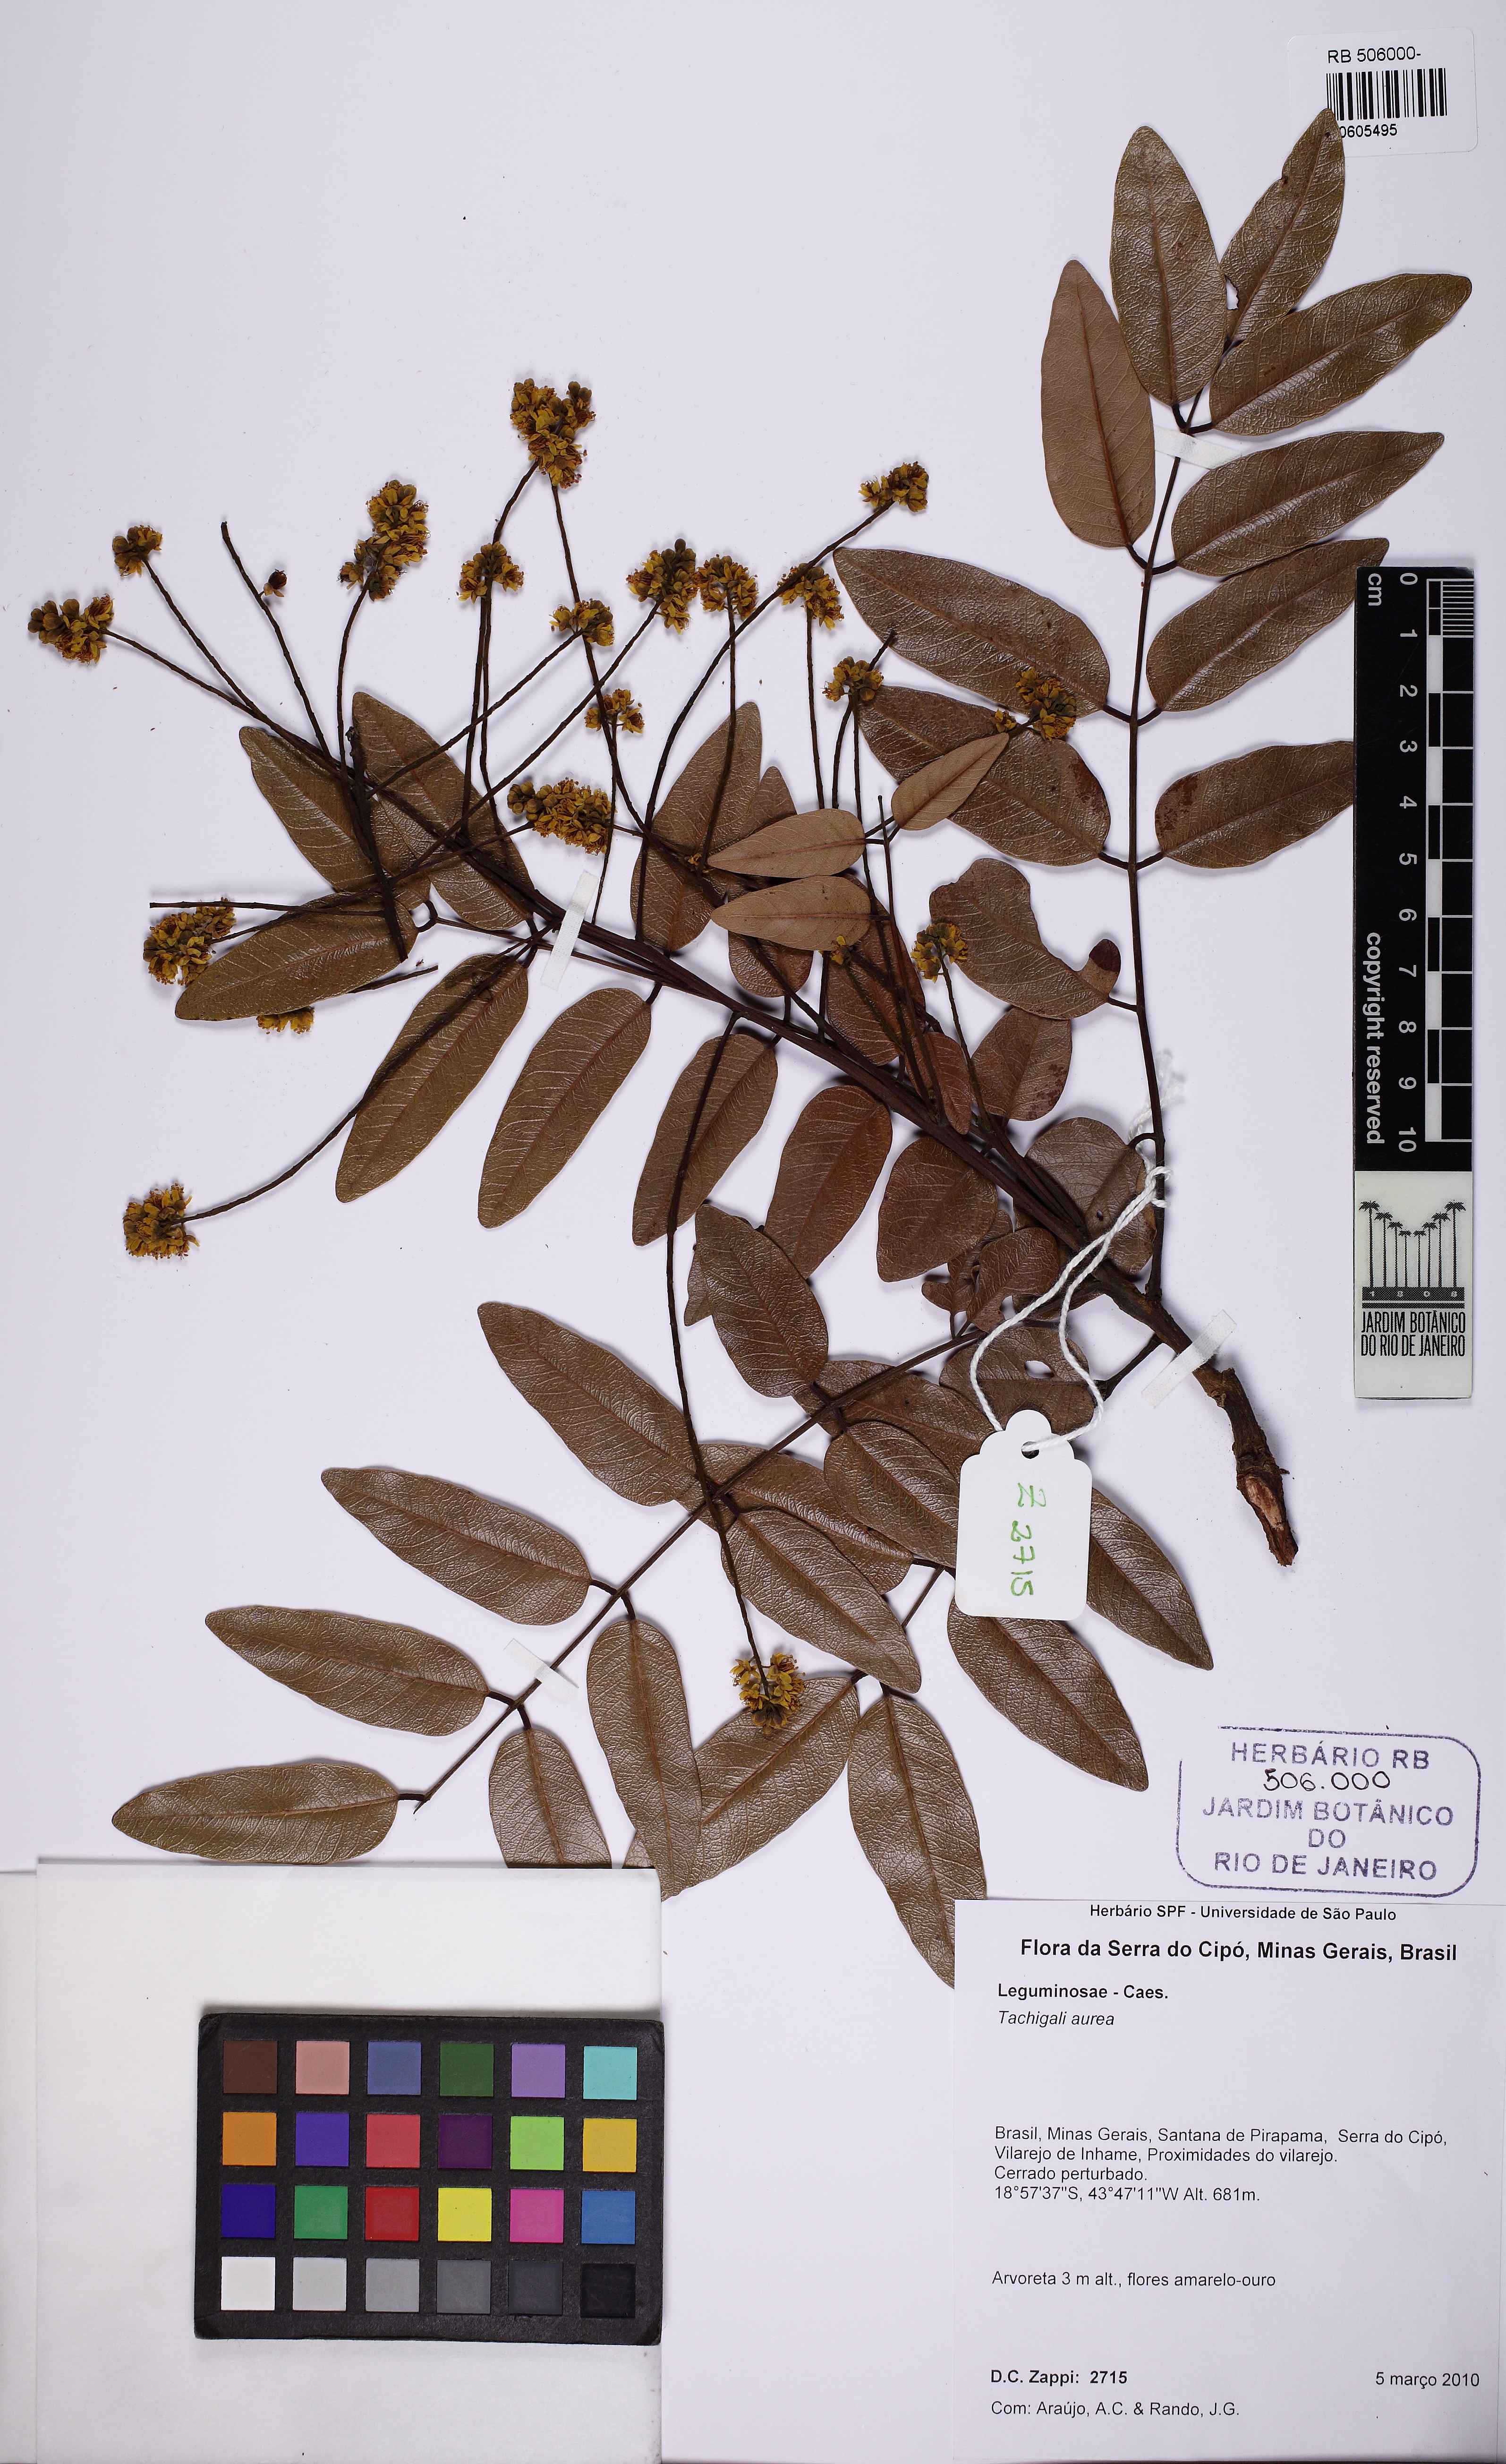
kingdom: Plantae
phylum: Tracheophyta
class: Magnoliopsida
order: Fabales
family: Fabaceae
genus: Tachigali
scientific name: Tachigali aurea
